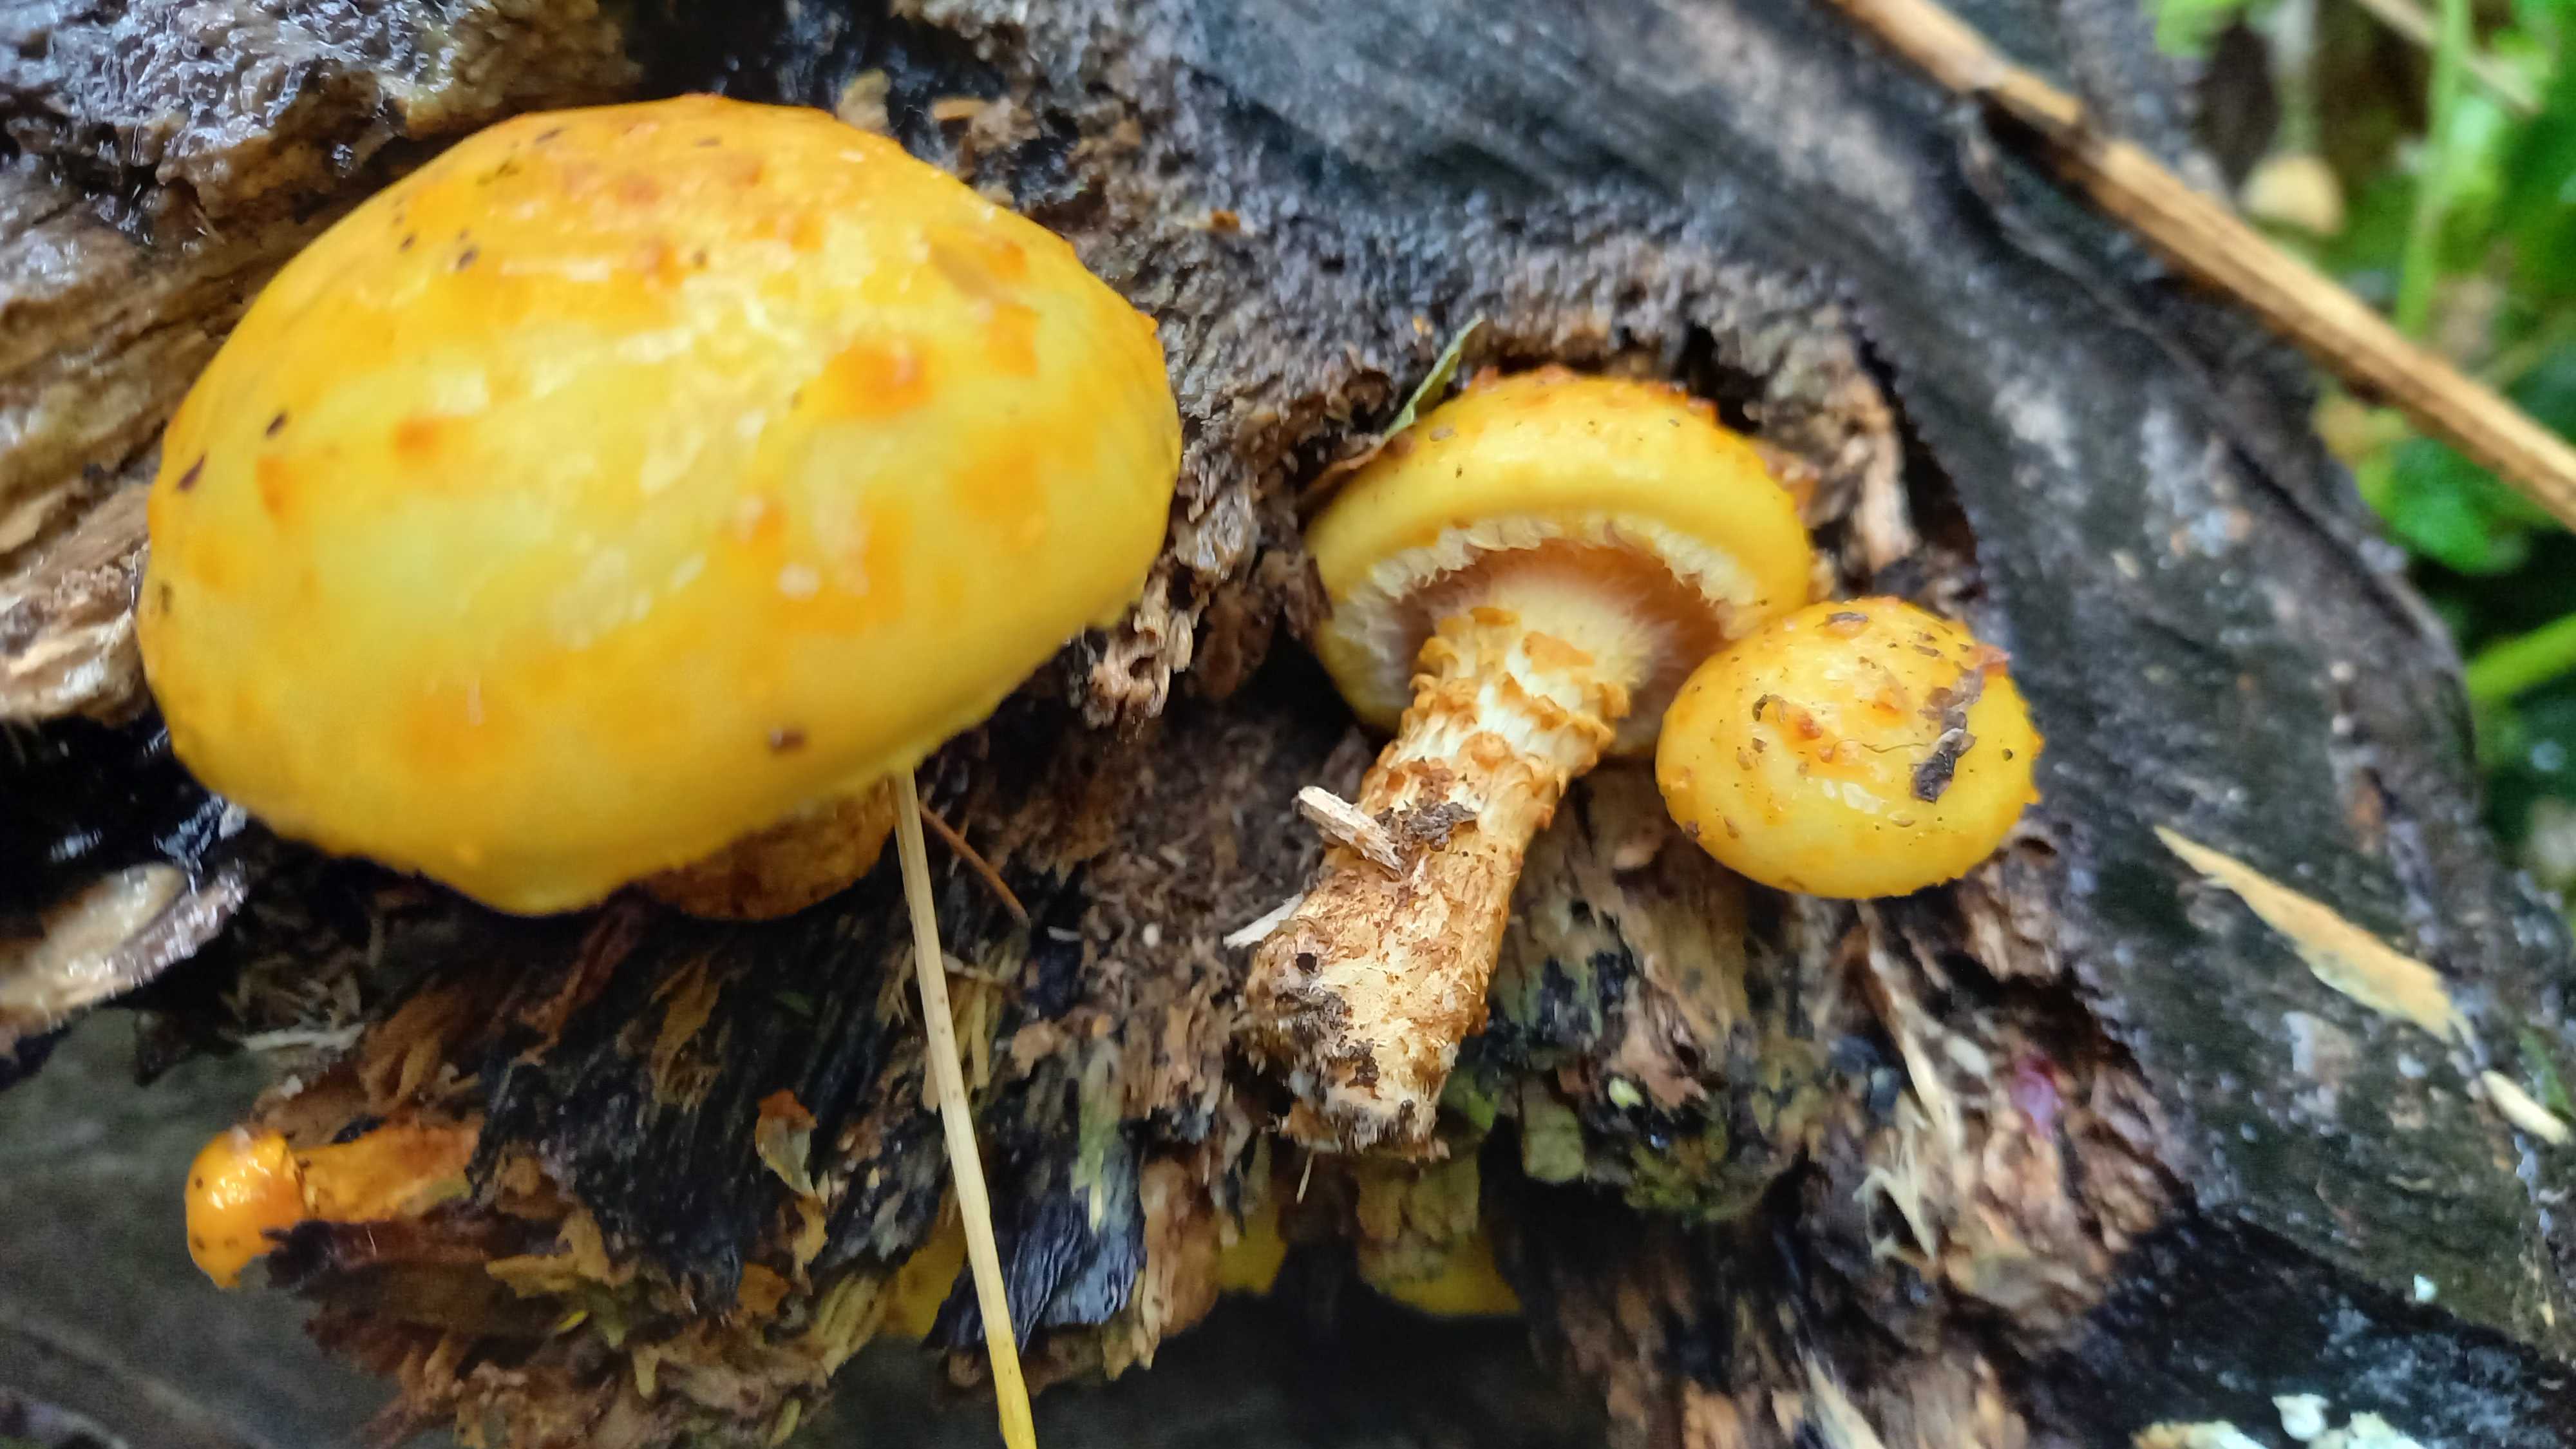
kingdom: Fungi
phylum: Basidiomycota
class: Agaricomycetes
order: Agaricales
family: Strophariaceae
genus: Pholiota
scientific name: Pholiota adiposa
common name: højtsiddende skælhat
